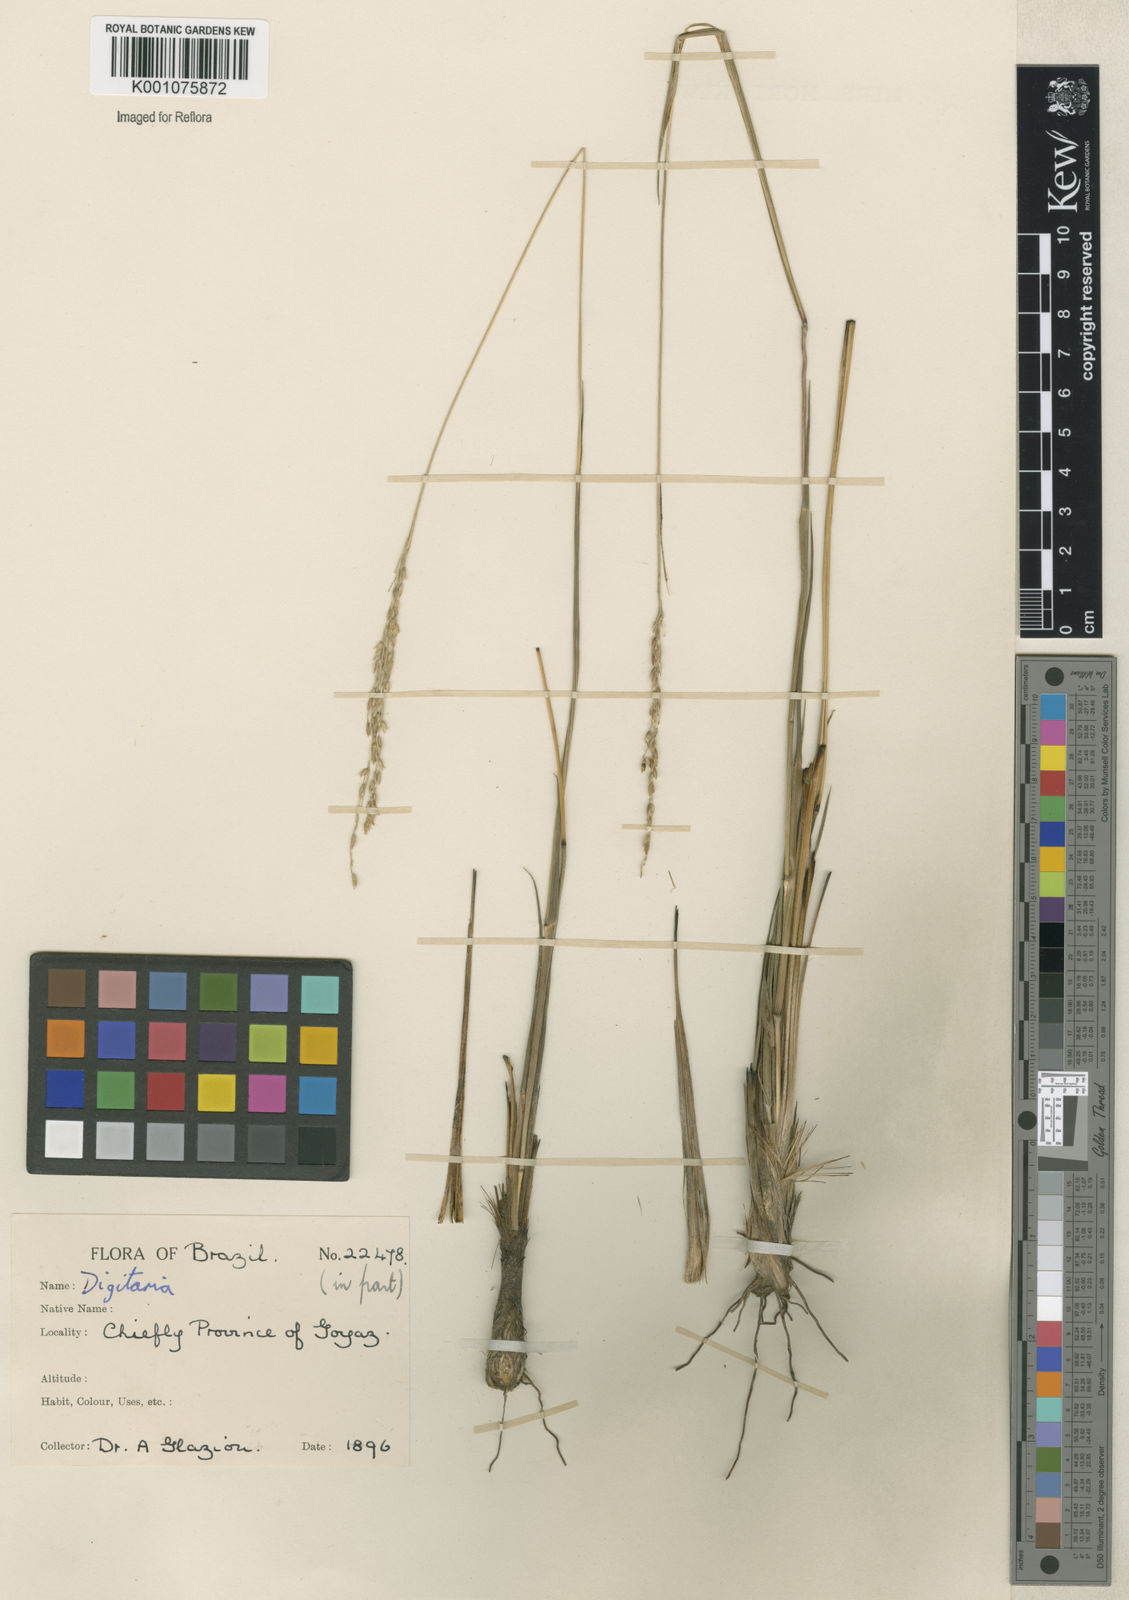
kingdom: Plantae
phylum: Tracheophyta
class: Liliopsida
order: Poales
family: Poaceae
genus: Digitaria
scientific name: Digitaria neesiana
